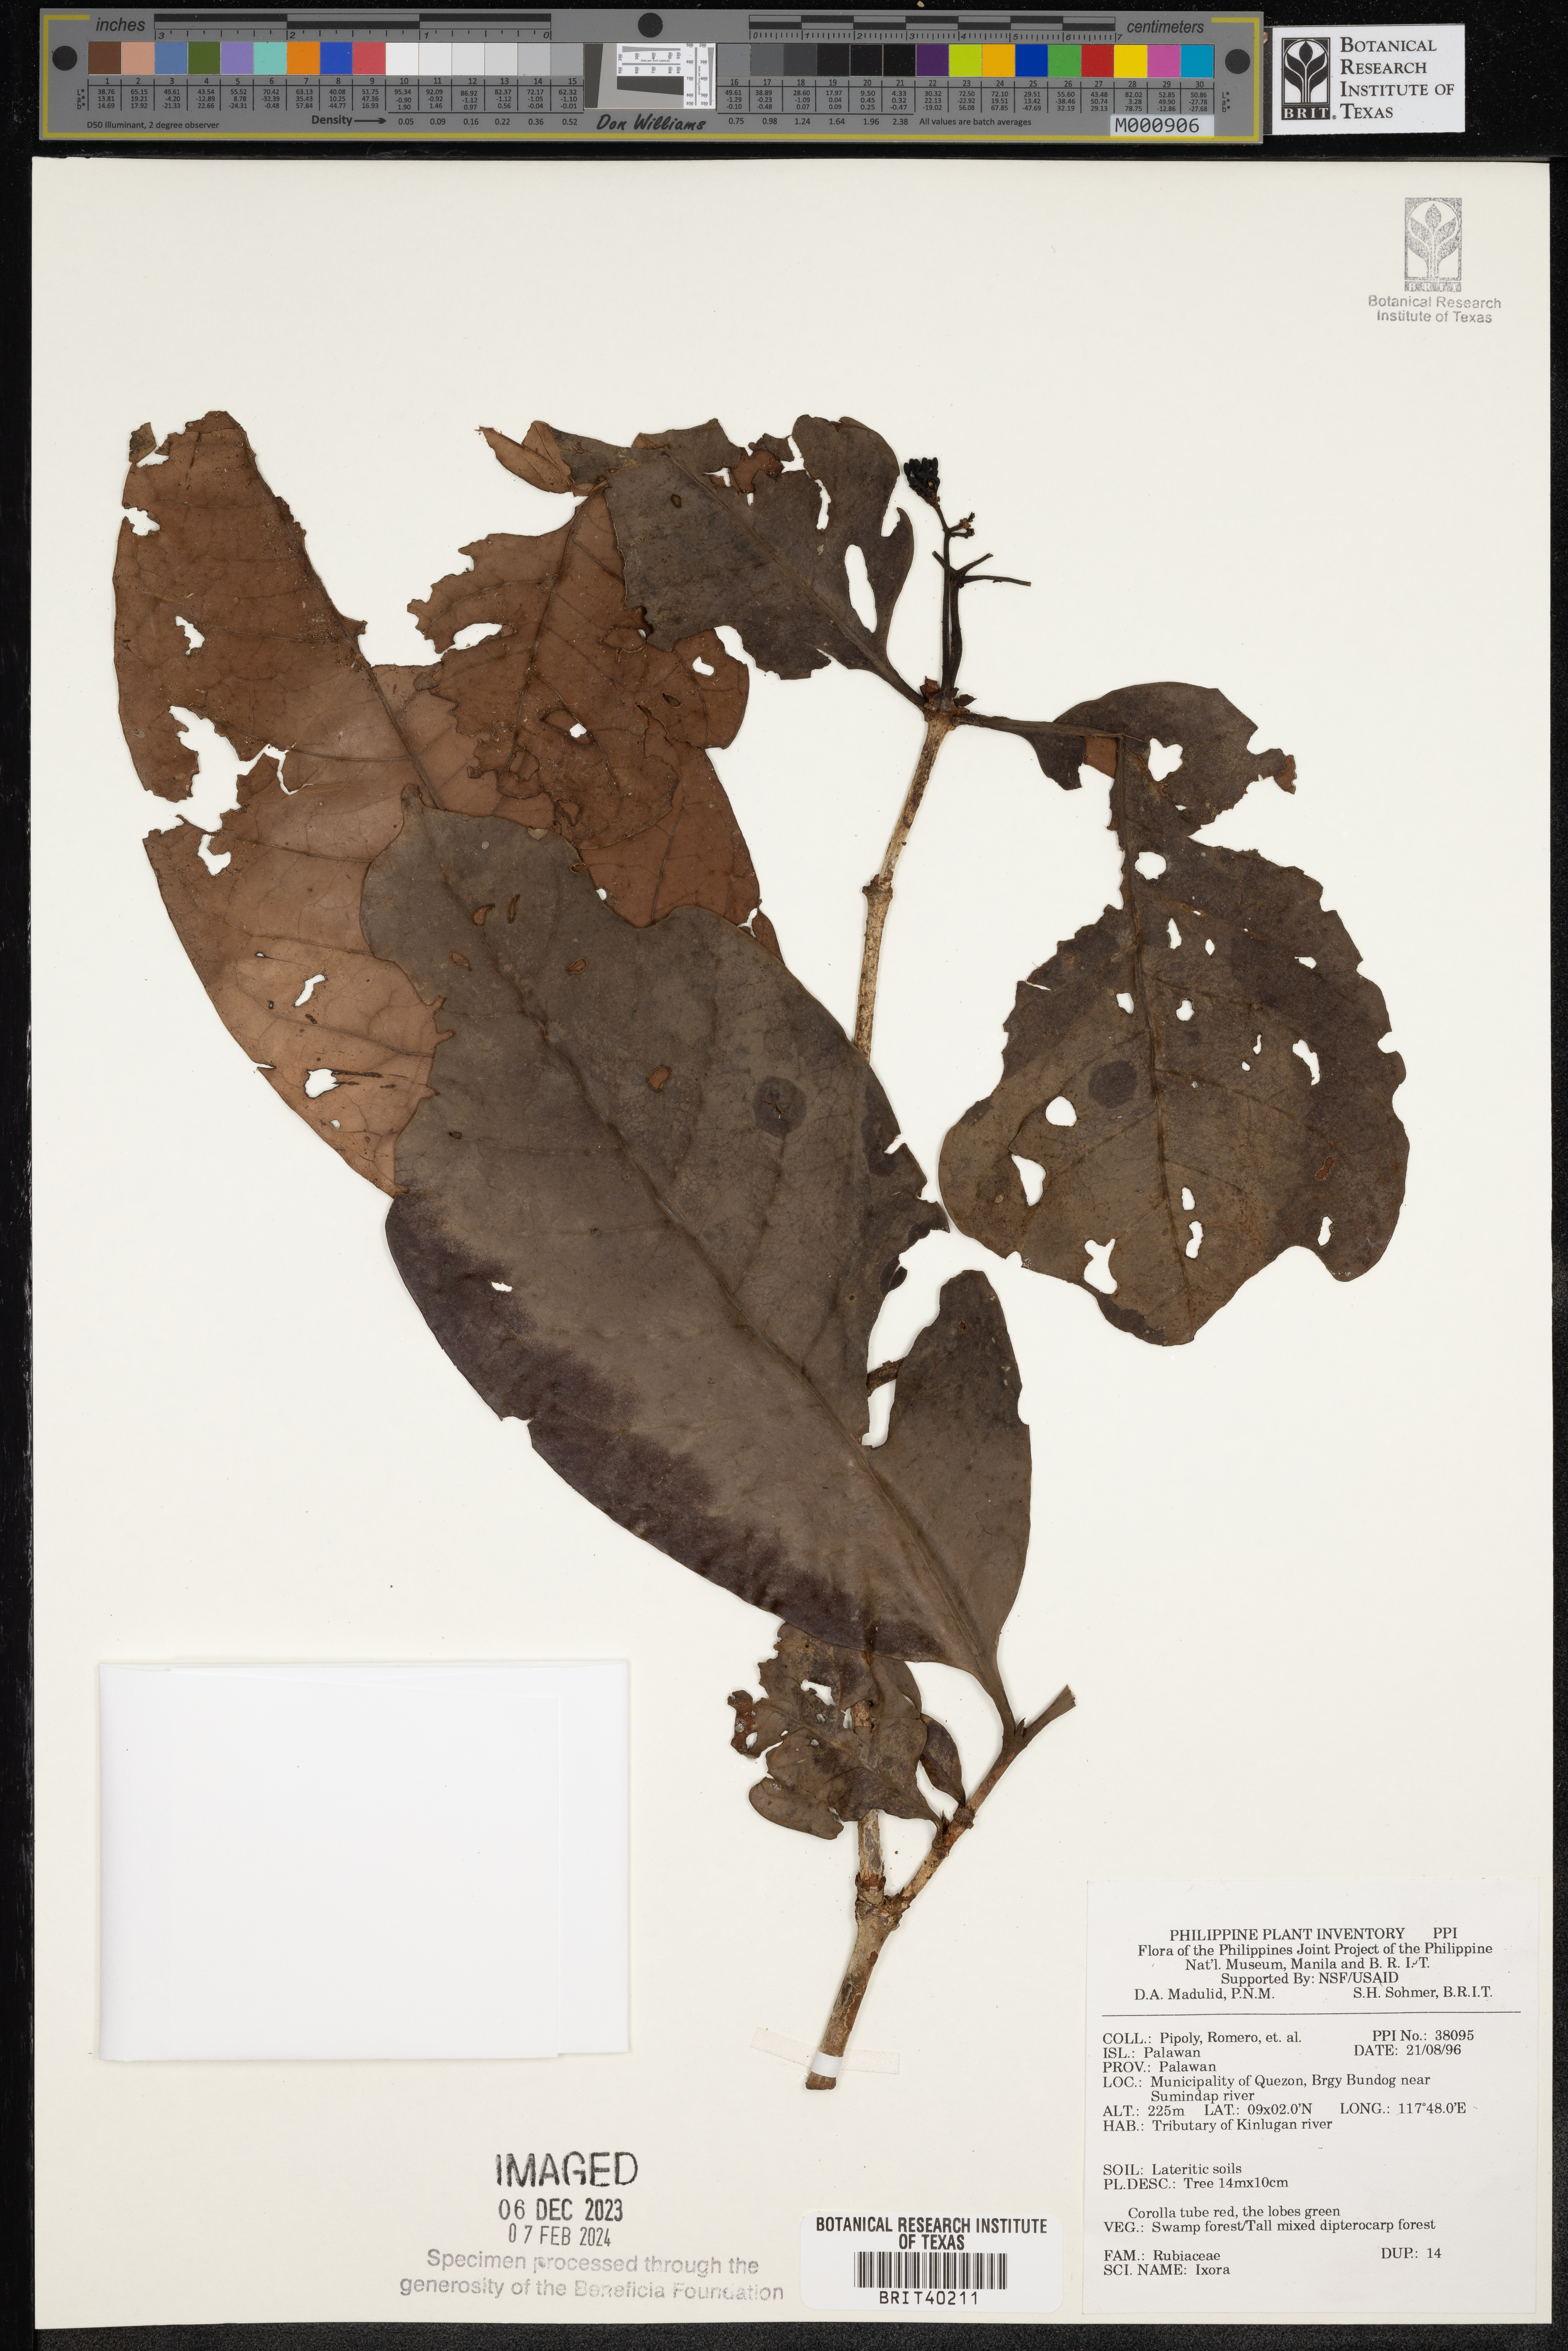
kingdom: Plantae
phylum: Tracheophyta
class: Magnoliopsida
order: Gentianales
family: Rubiaceae
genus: Ixora
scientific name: Ixora
